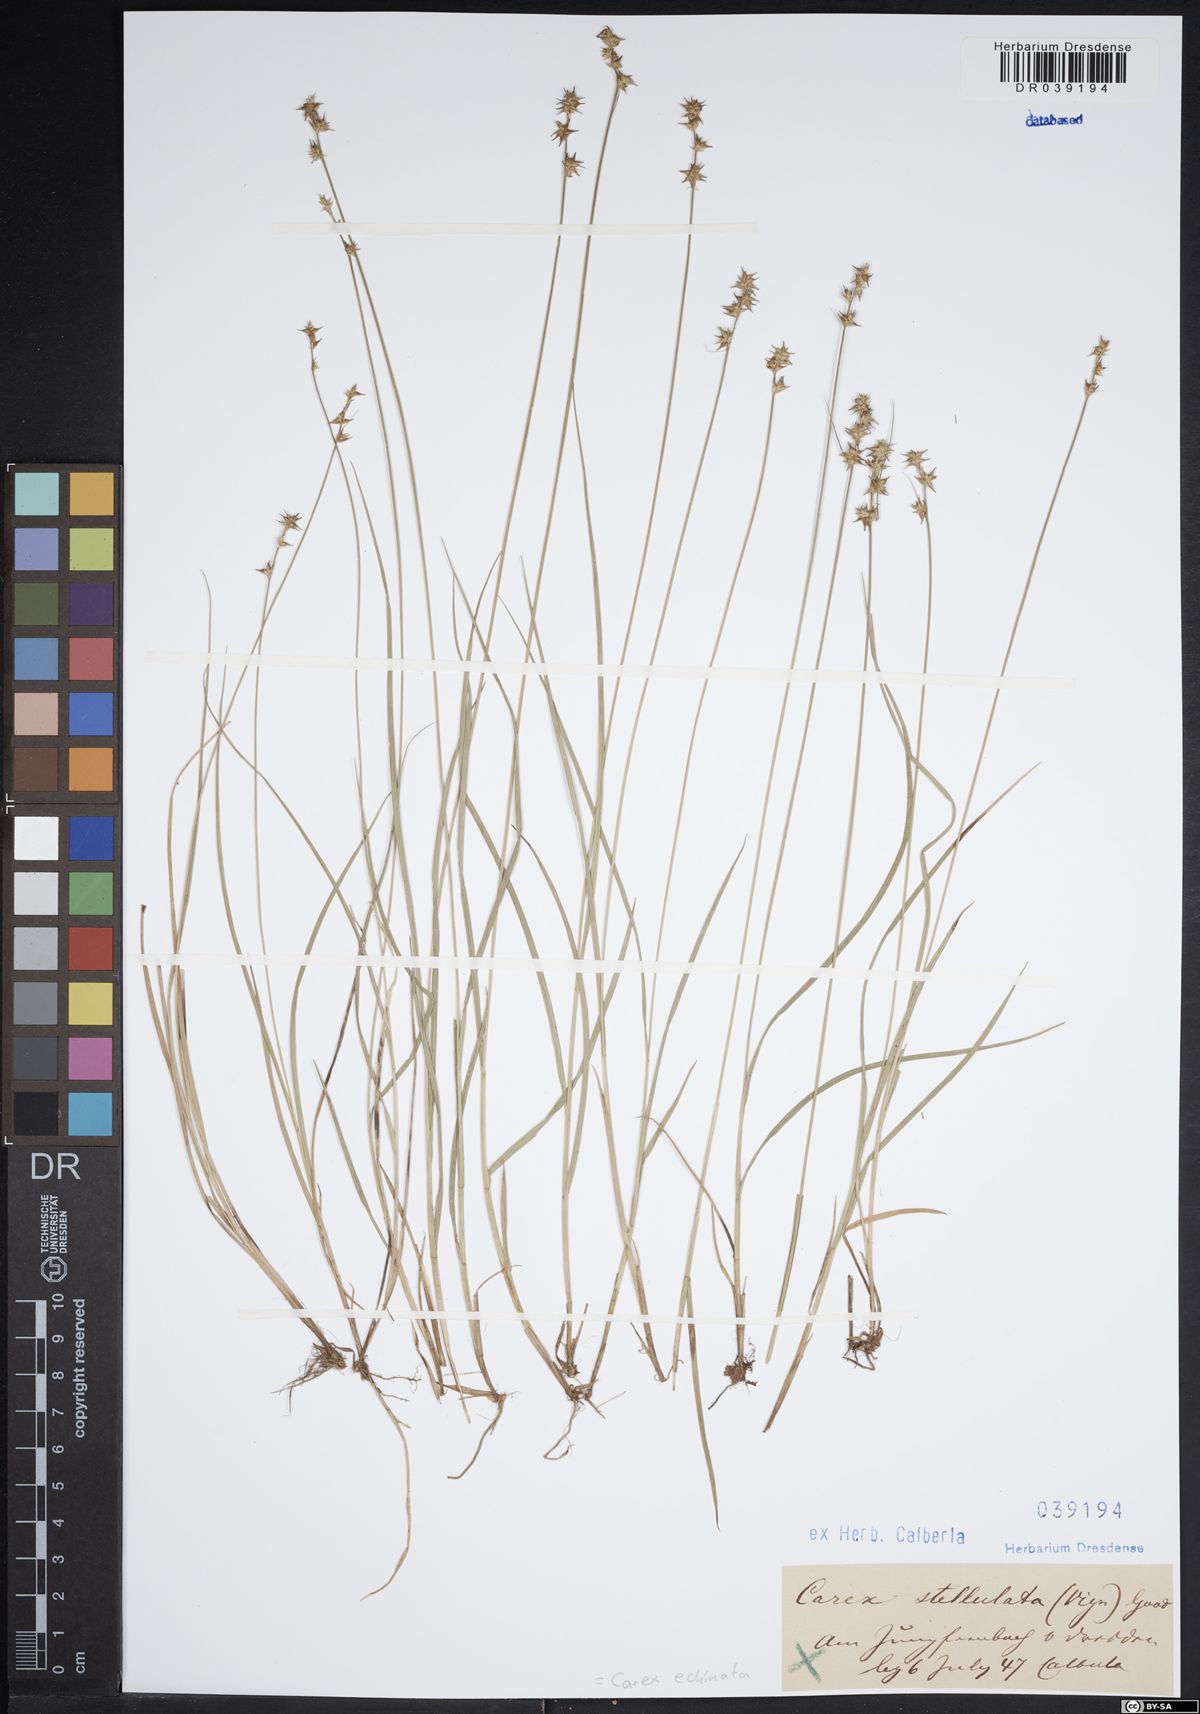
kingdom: Plantae
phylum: Tracheophyta
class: Liliopsida
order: Poales
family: Cyperaceae
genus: Carex
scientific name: Carex echinata
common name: Star sedge
